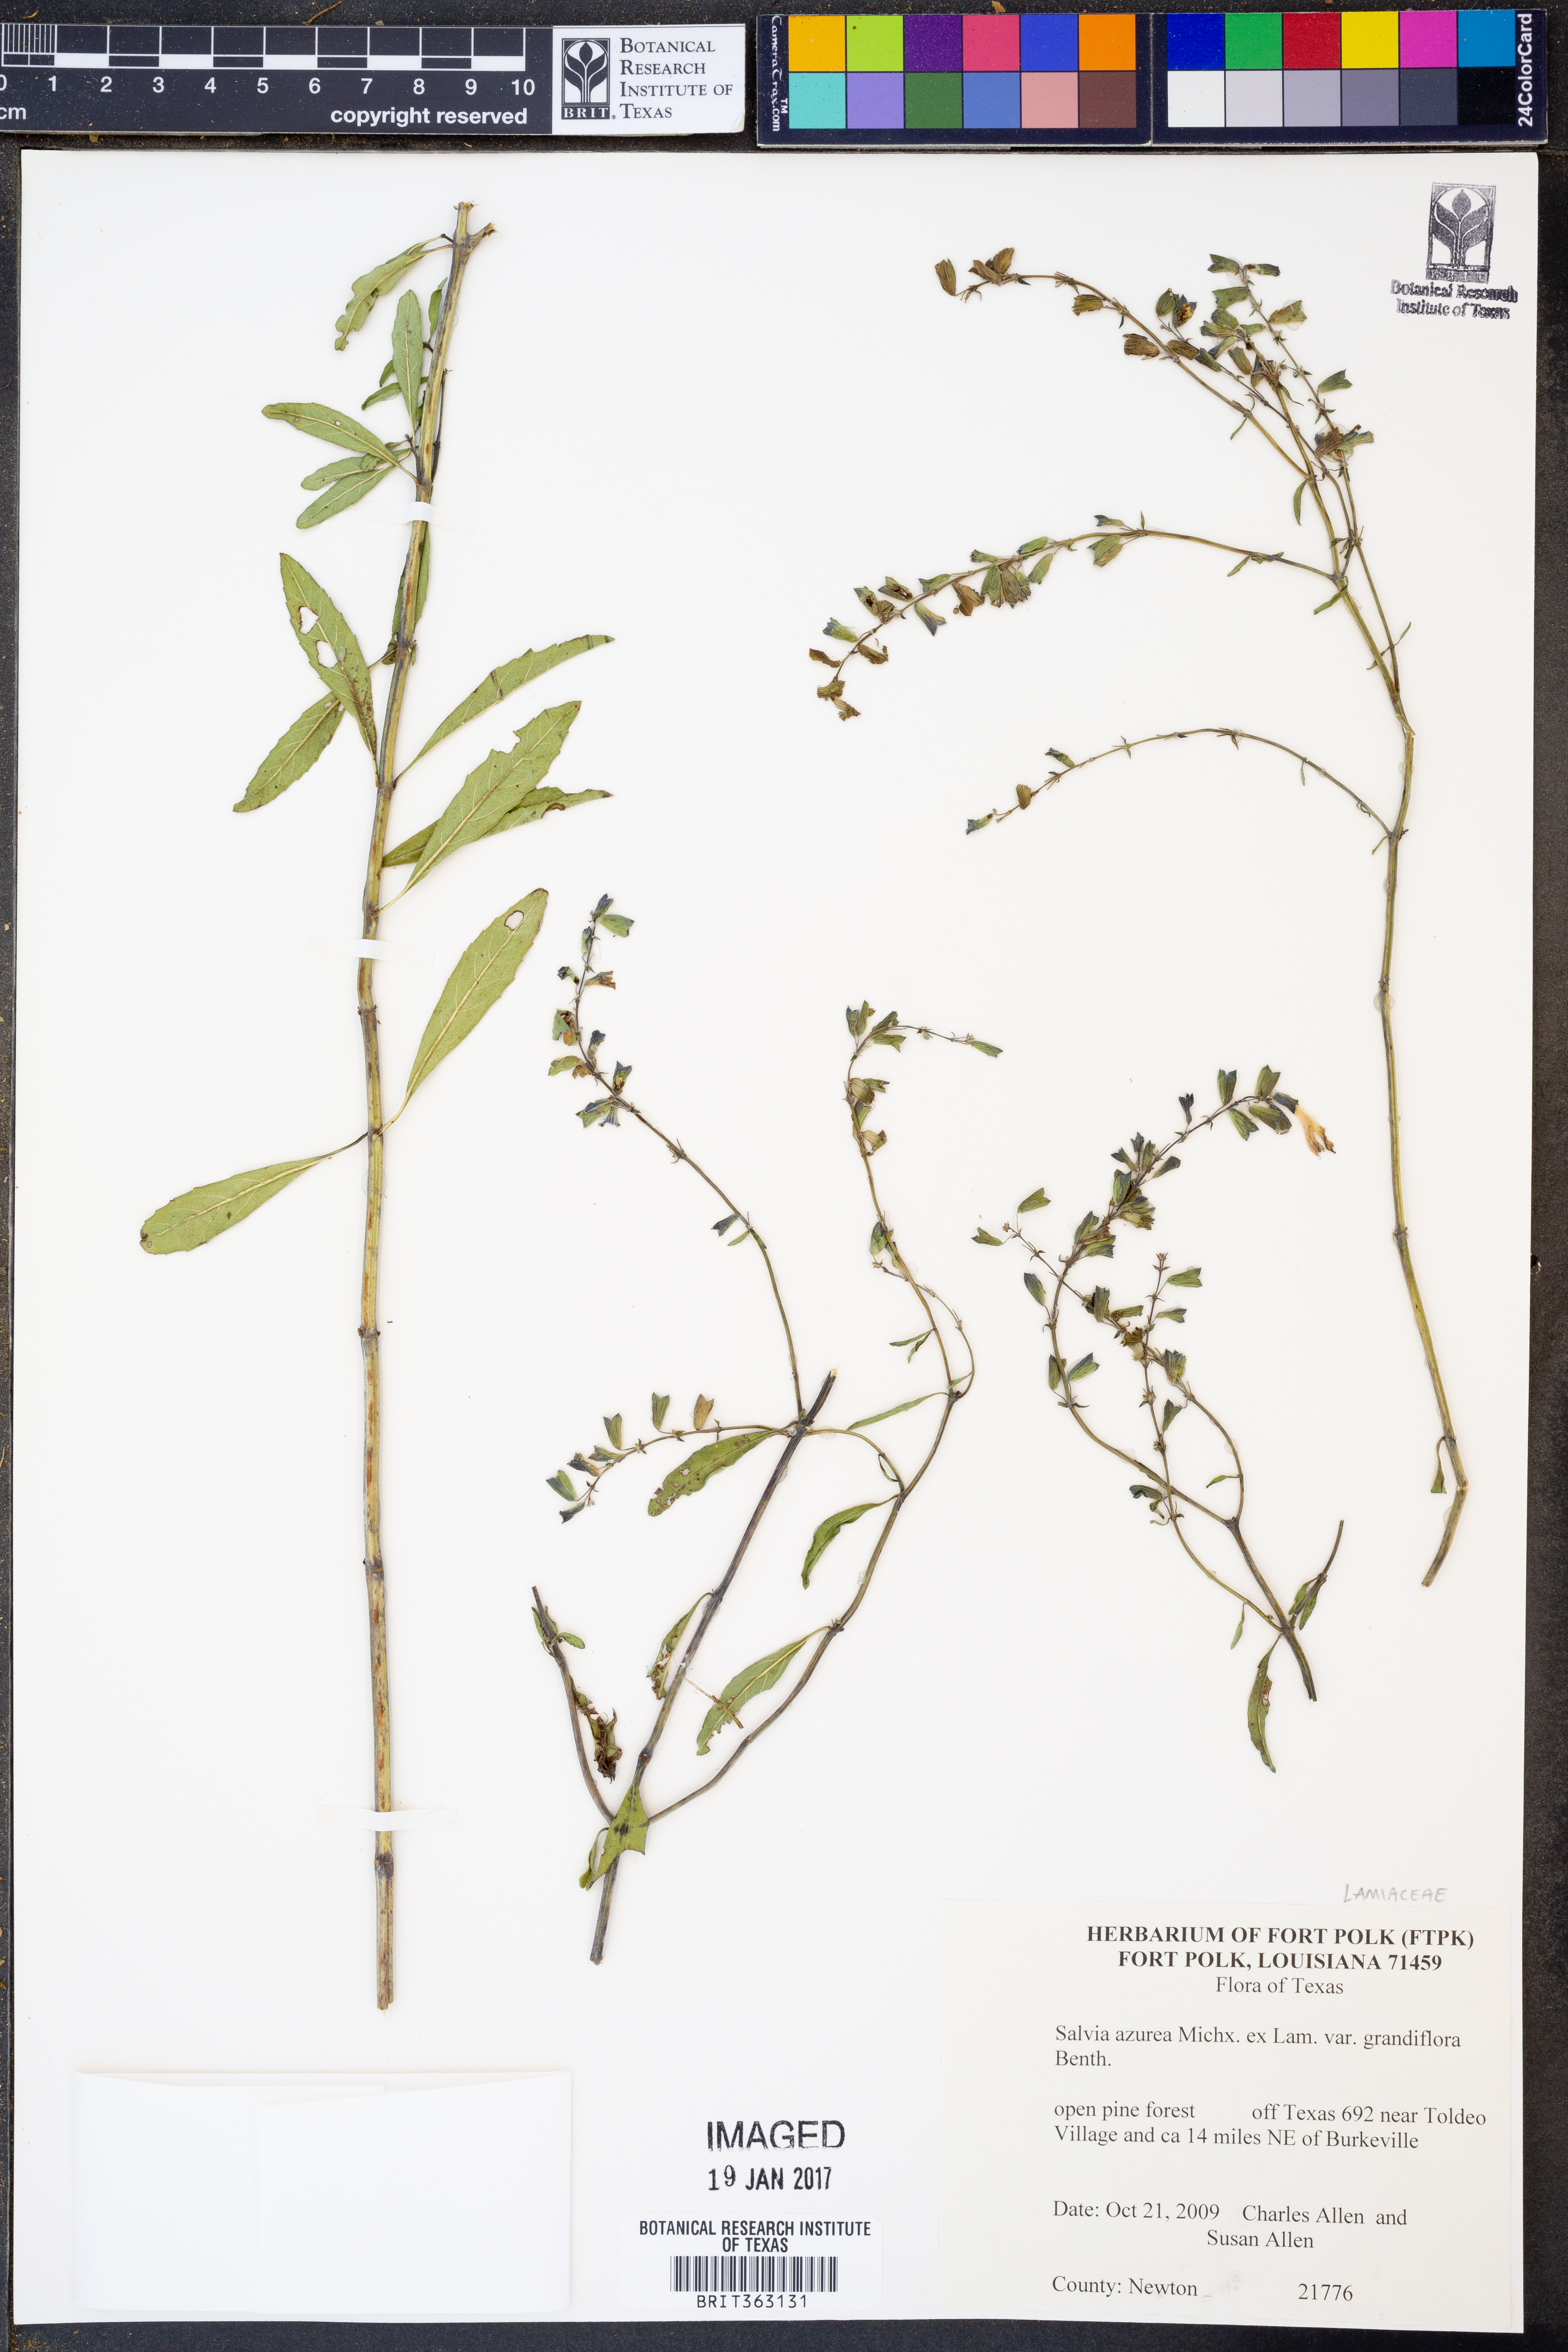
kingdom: Plantae
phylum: Tracheophyta
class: Magnoliopsida
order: Lamiales
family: Lamiaceae
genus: Salvia
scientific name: Salvia azurea
